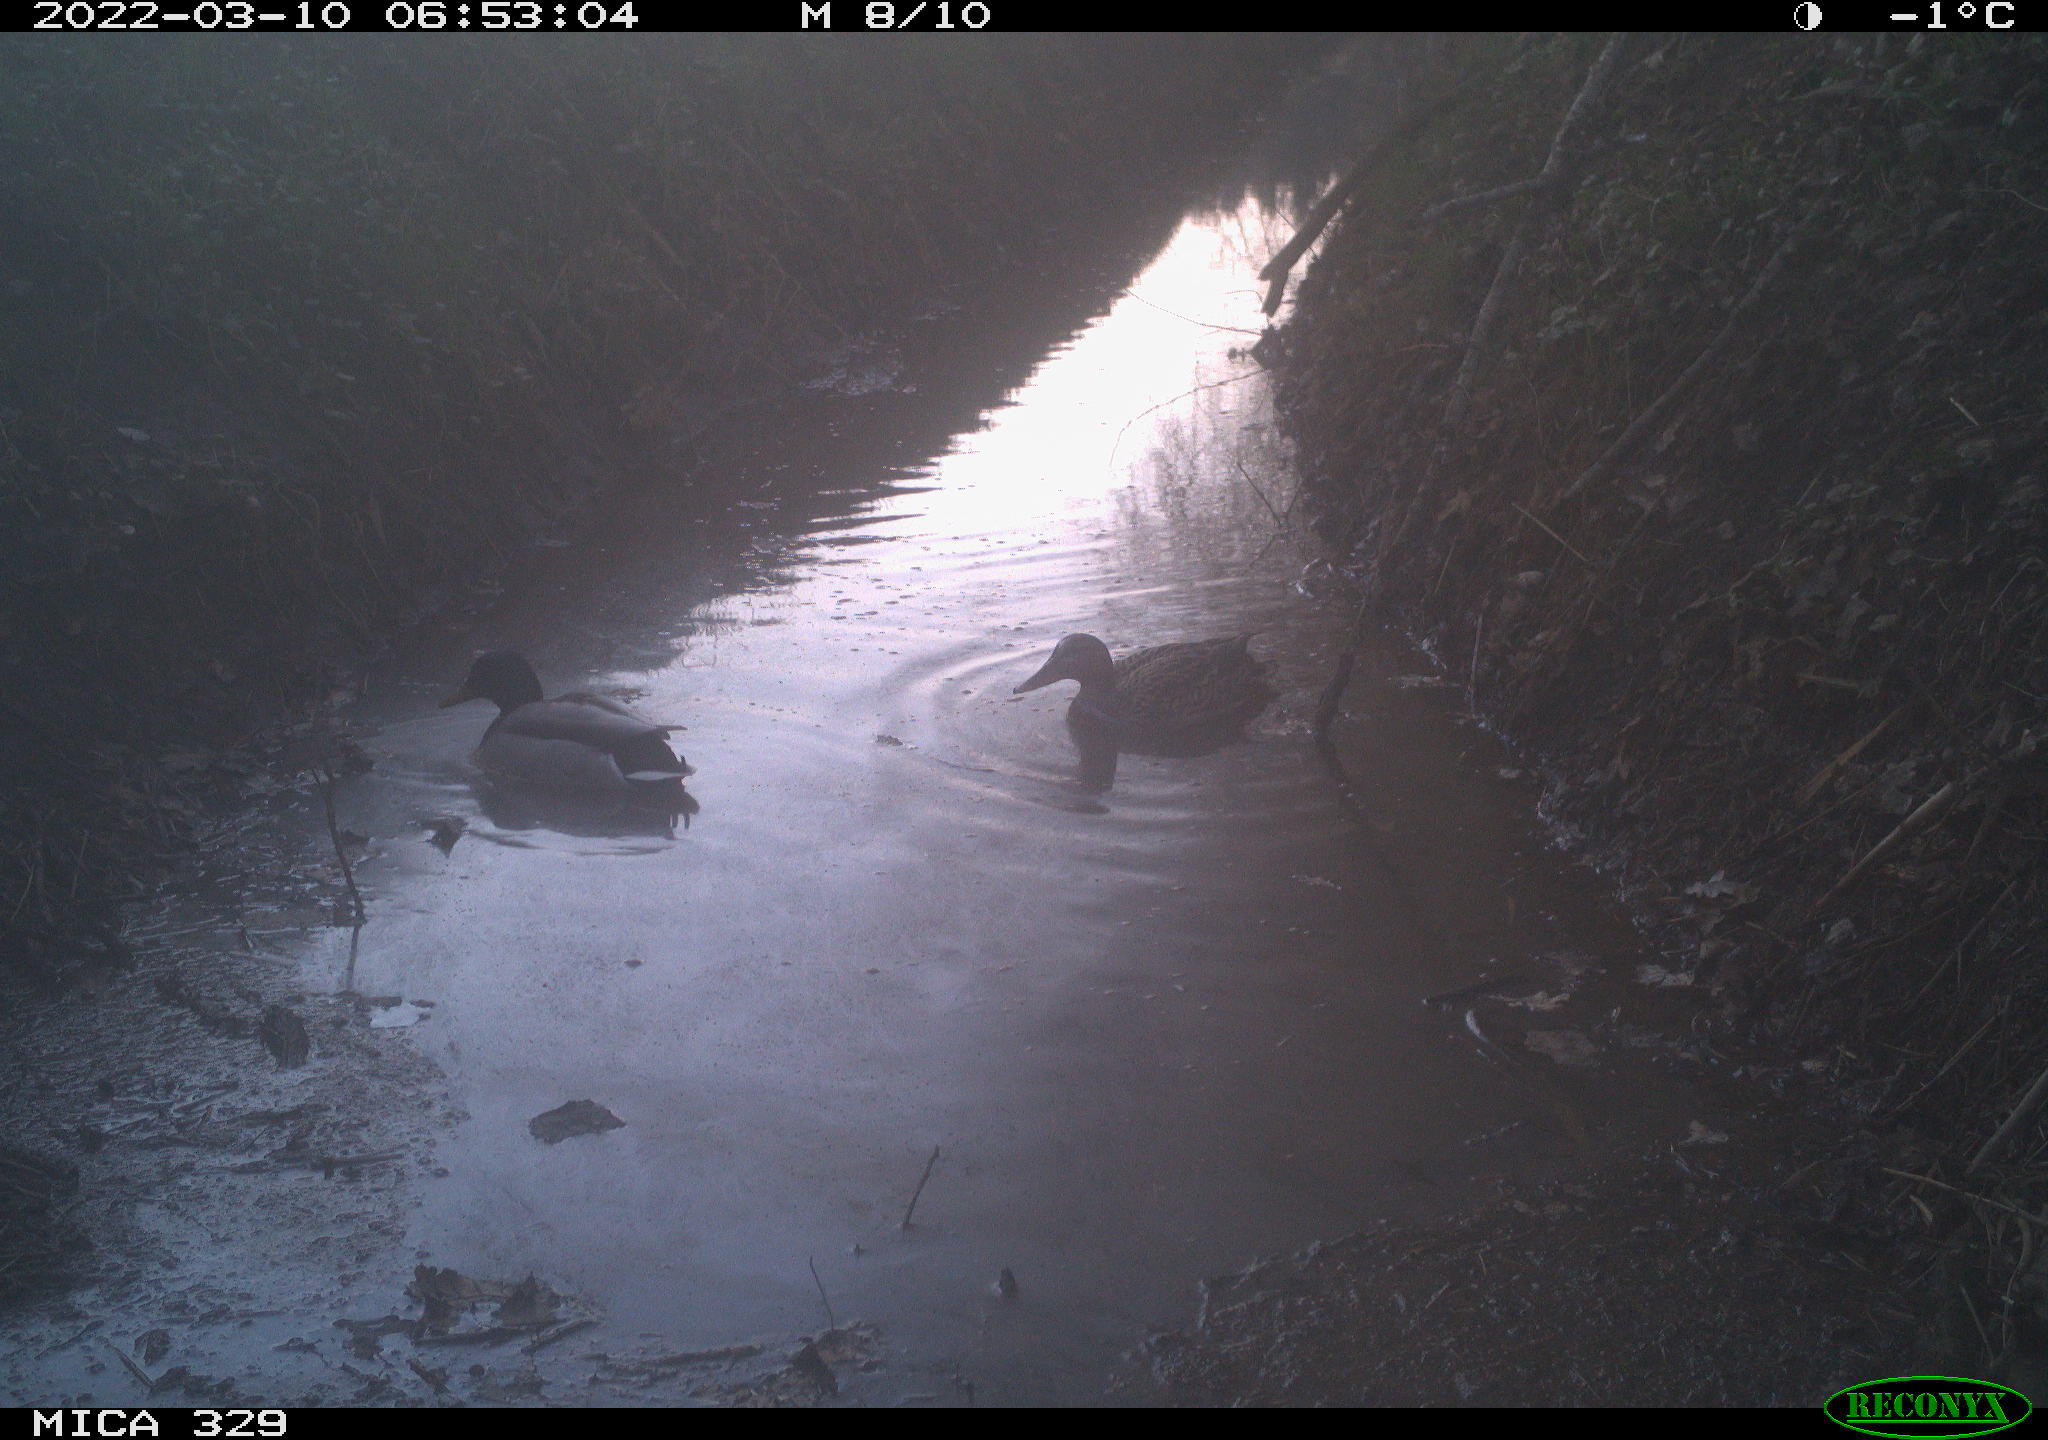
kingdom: Animalia
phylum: Chordata
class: Aves
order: Anseriformes
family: Anatidae
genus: Anas
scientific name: Anas platyrhynchos
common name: Mallard
